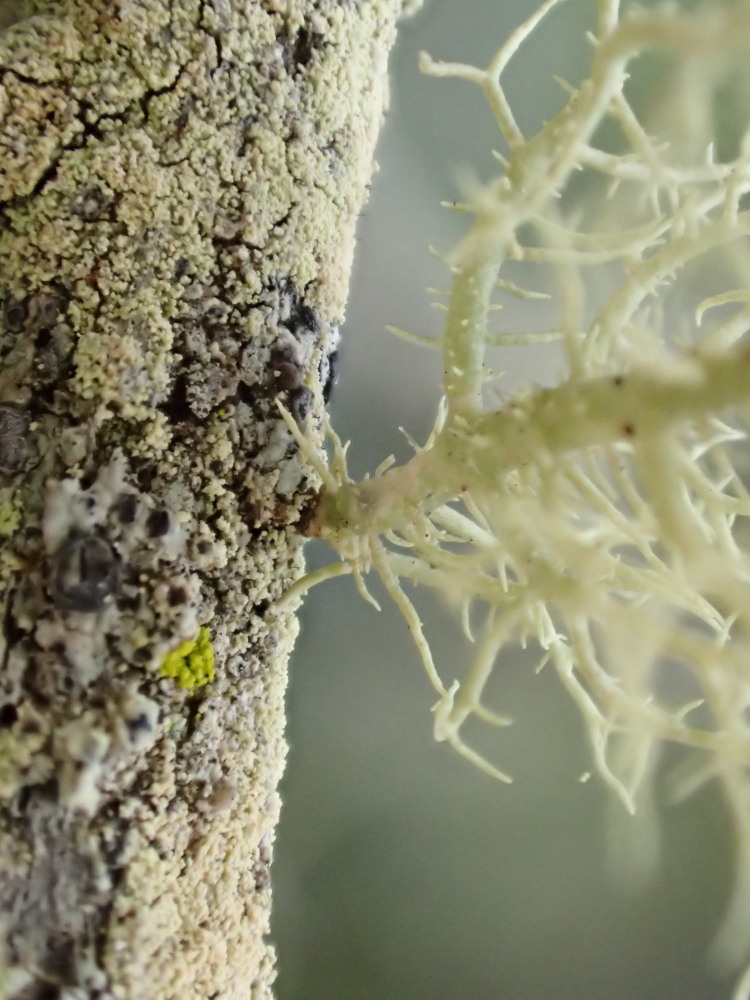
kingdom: Fungi
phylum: Ascomycota
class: Lecanoromycetes
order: Lecanorales
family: Parmeliaceae
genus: Usnea
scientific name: Usnea hirta
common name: liden skæglav
